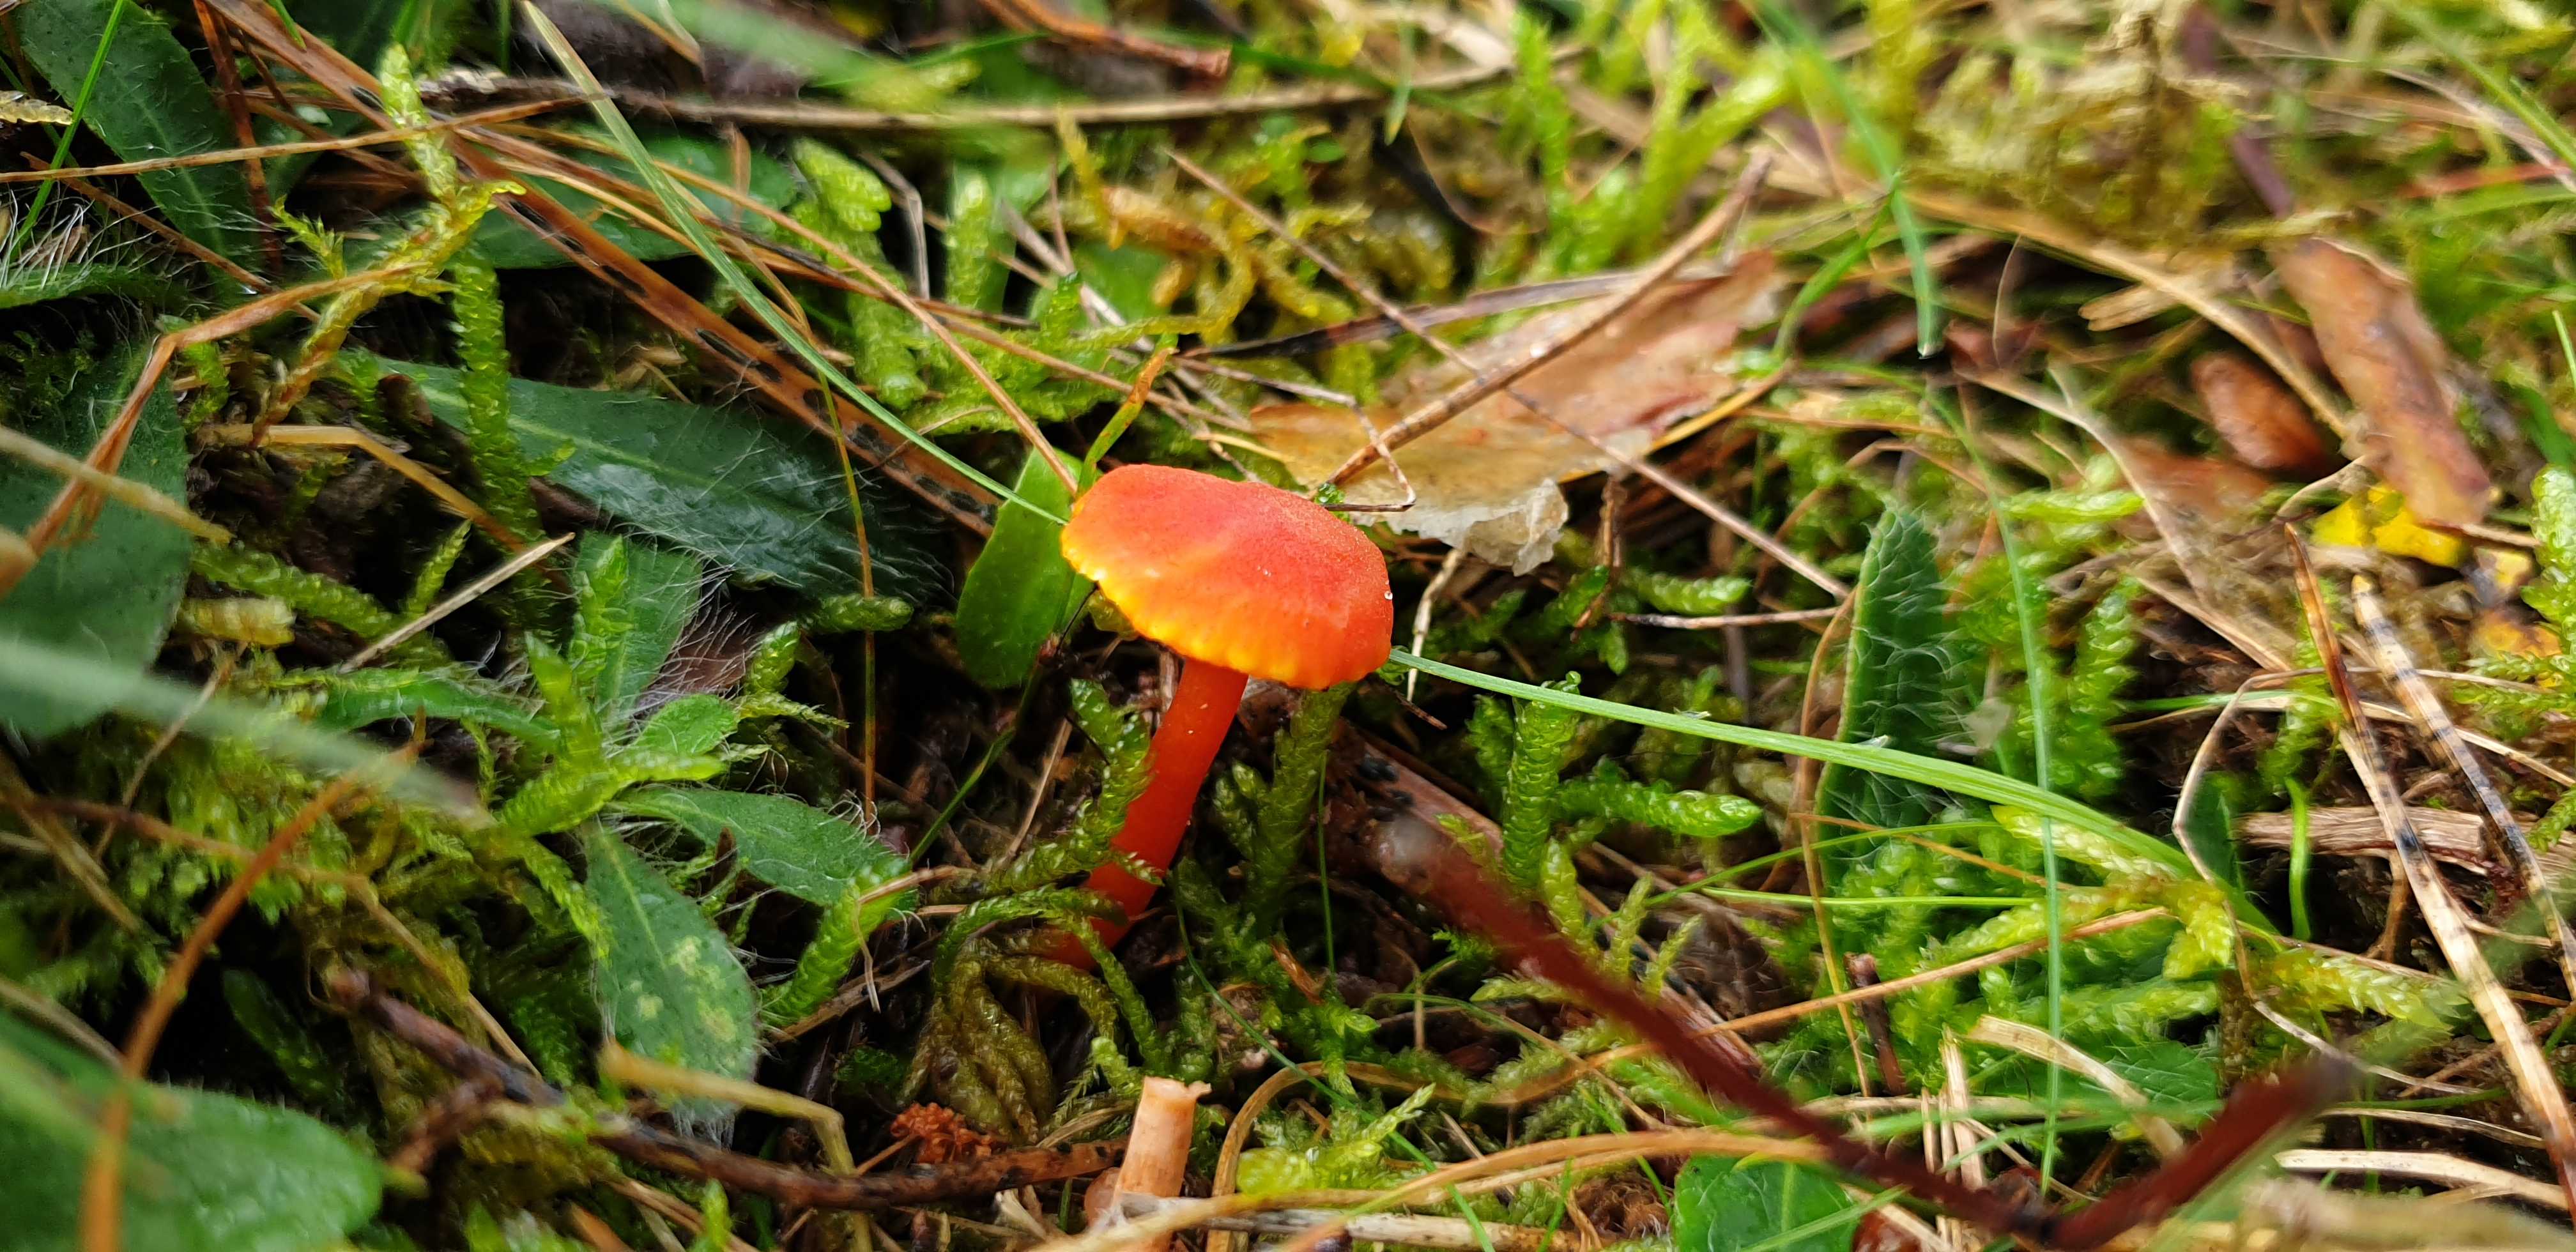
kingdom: Fungi
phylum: Basidiomycota
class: Agaricomycetes
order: Agaricales
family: Hygrophoraceae
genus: Hygrocybe
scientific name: Hygrocybe mucronella
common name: bitter vokshat
